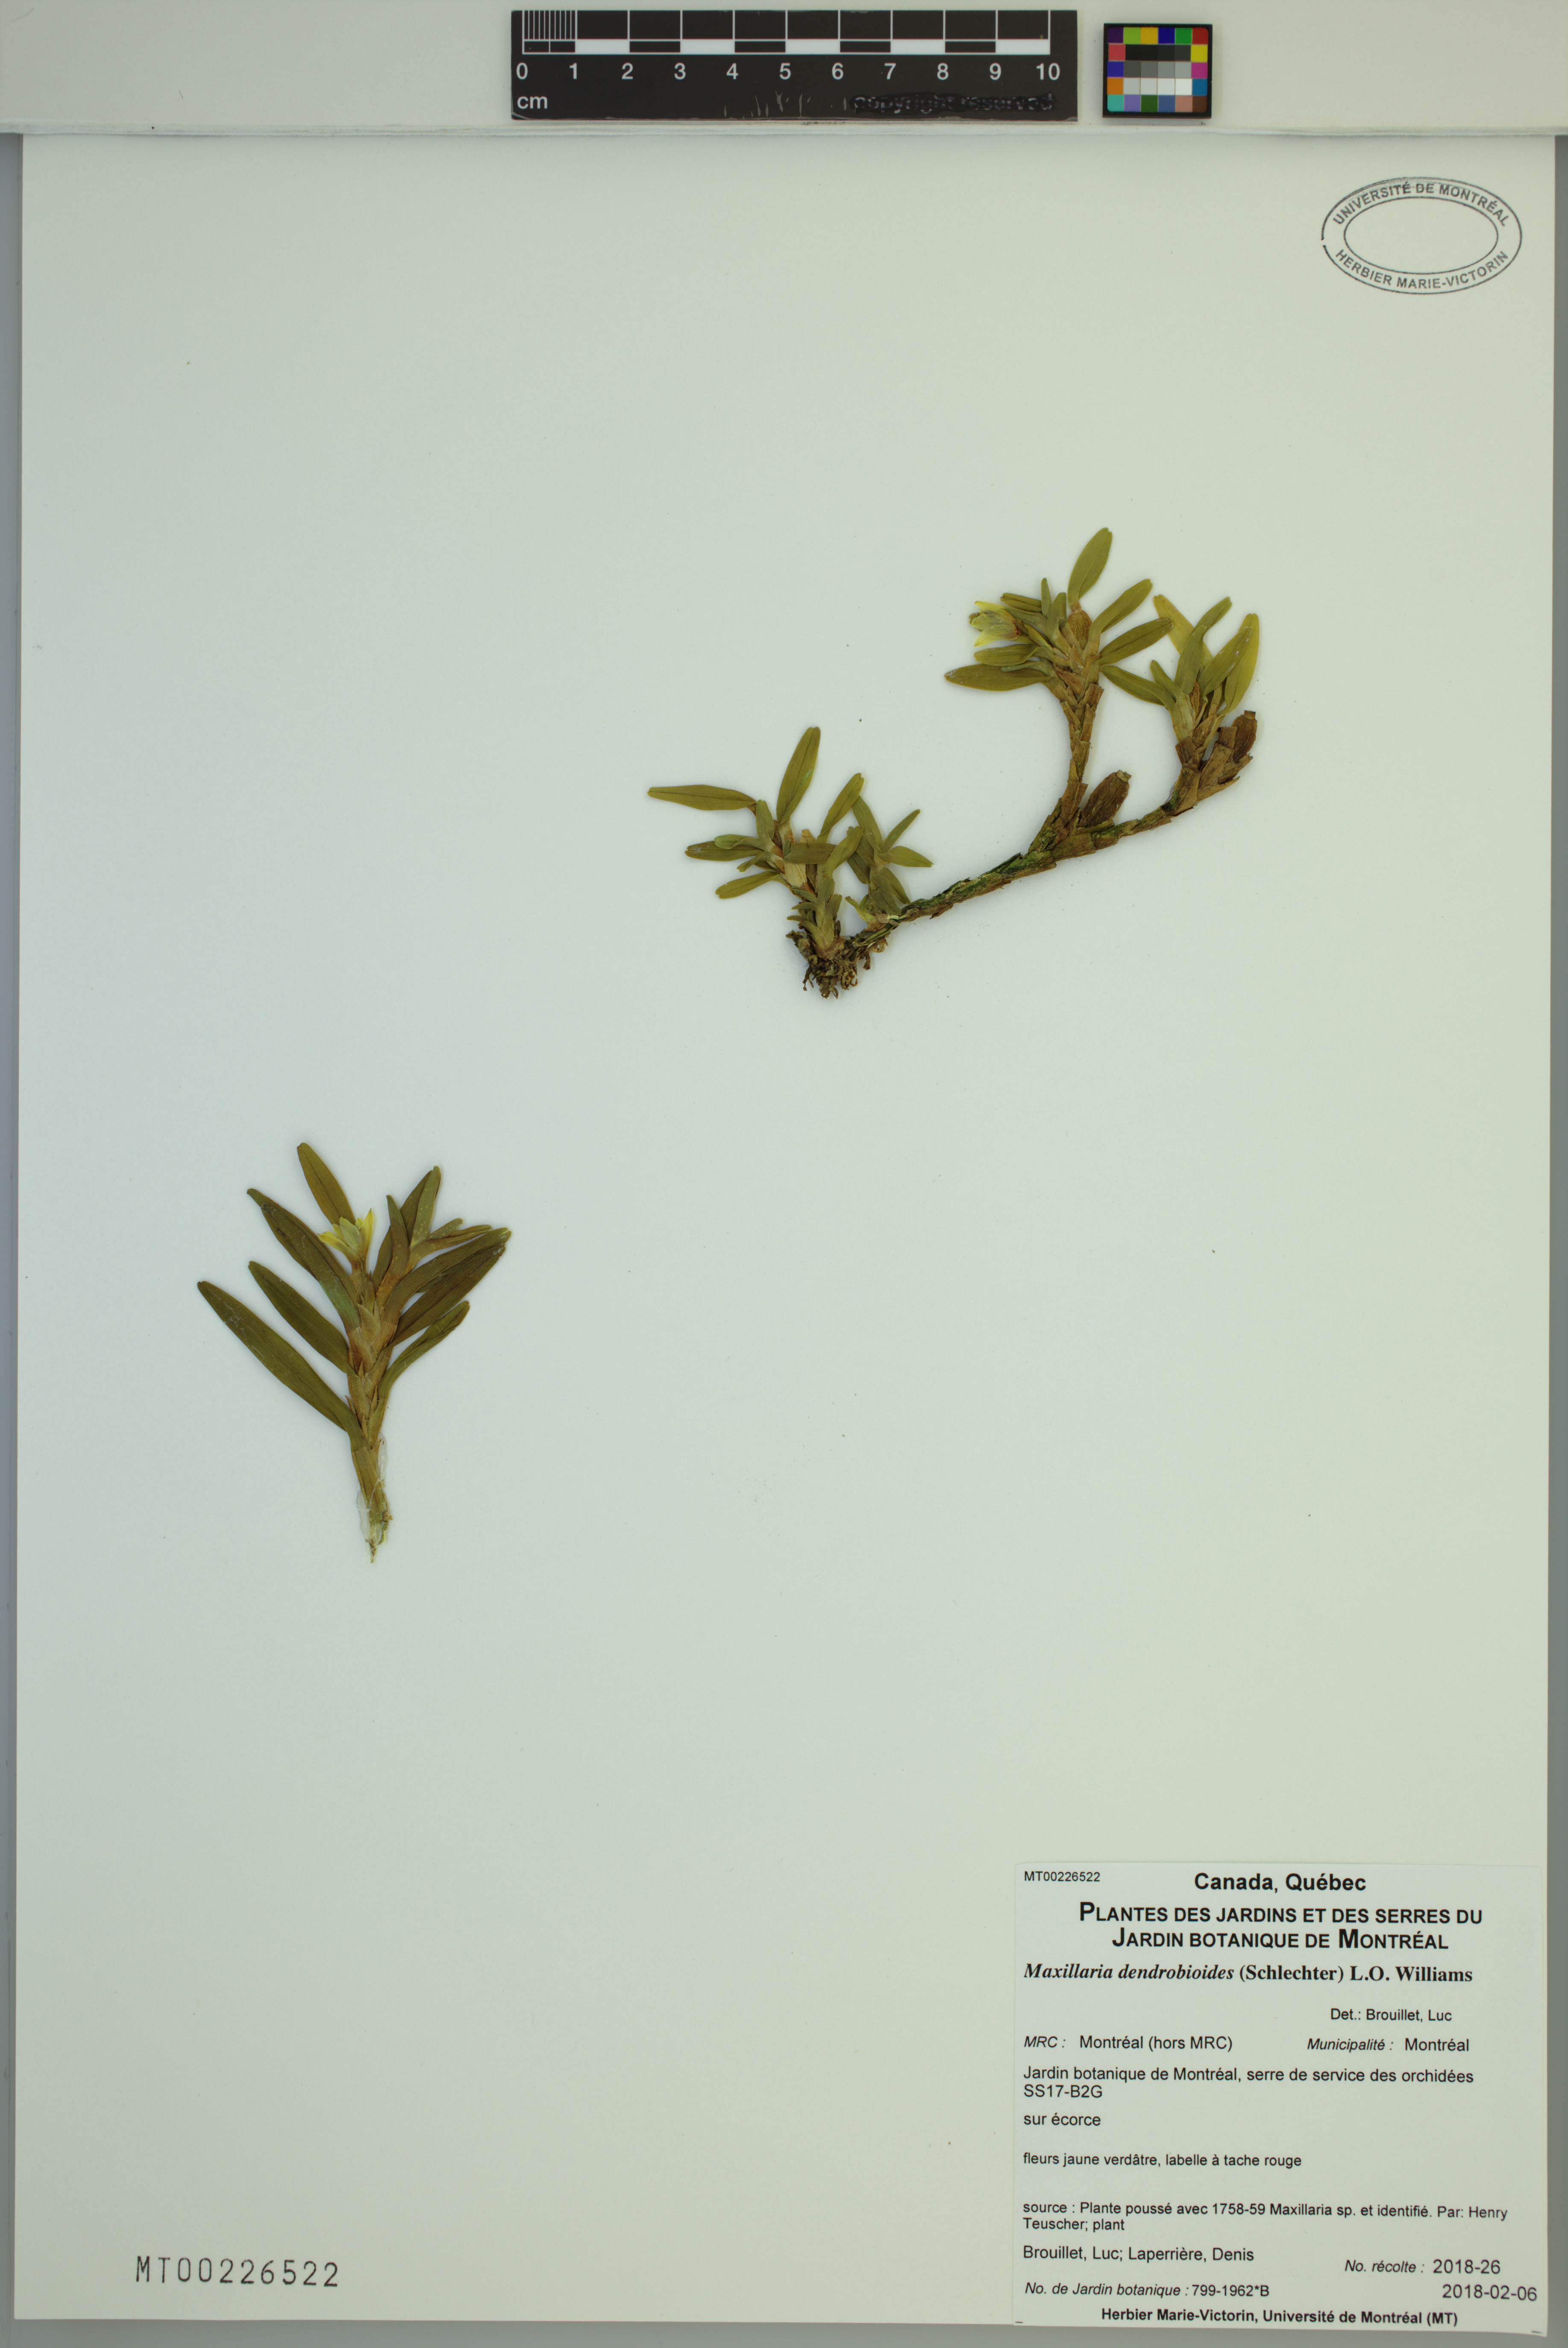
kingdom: Plantae
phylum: Tracheophyta
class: Liliopsida
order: Asparagales
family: Orchidaceae
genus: Maxillaria
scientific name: Maxillaria dendrobioides
